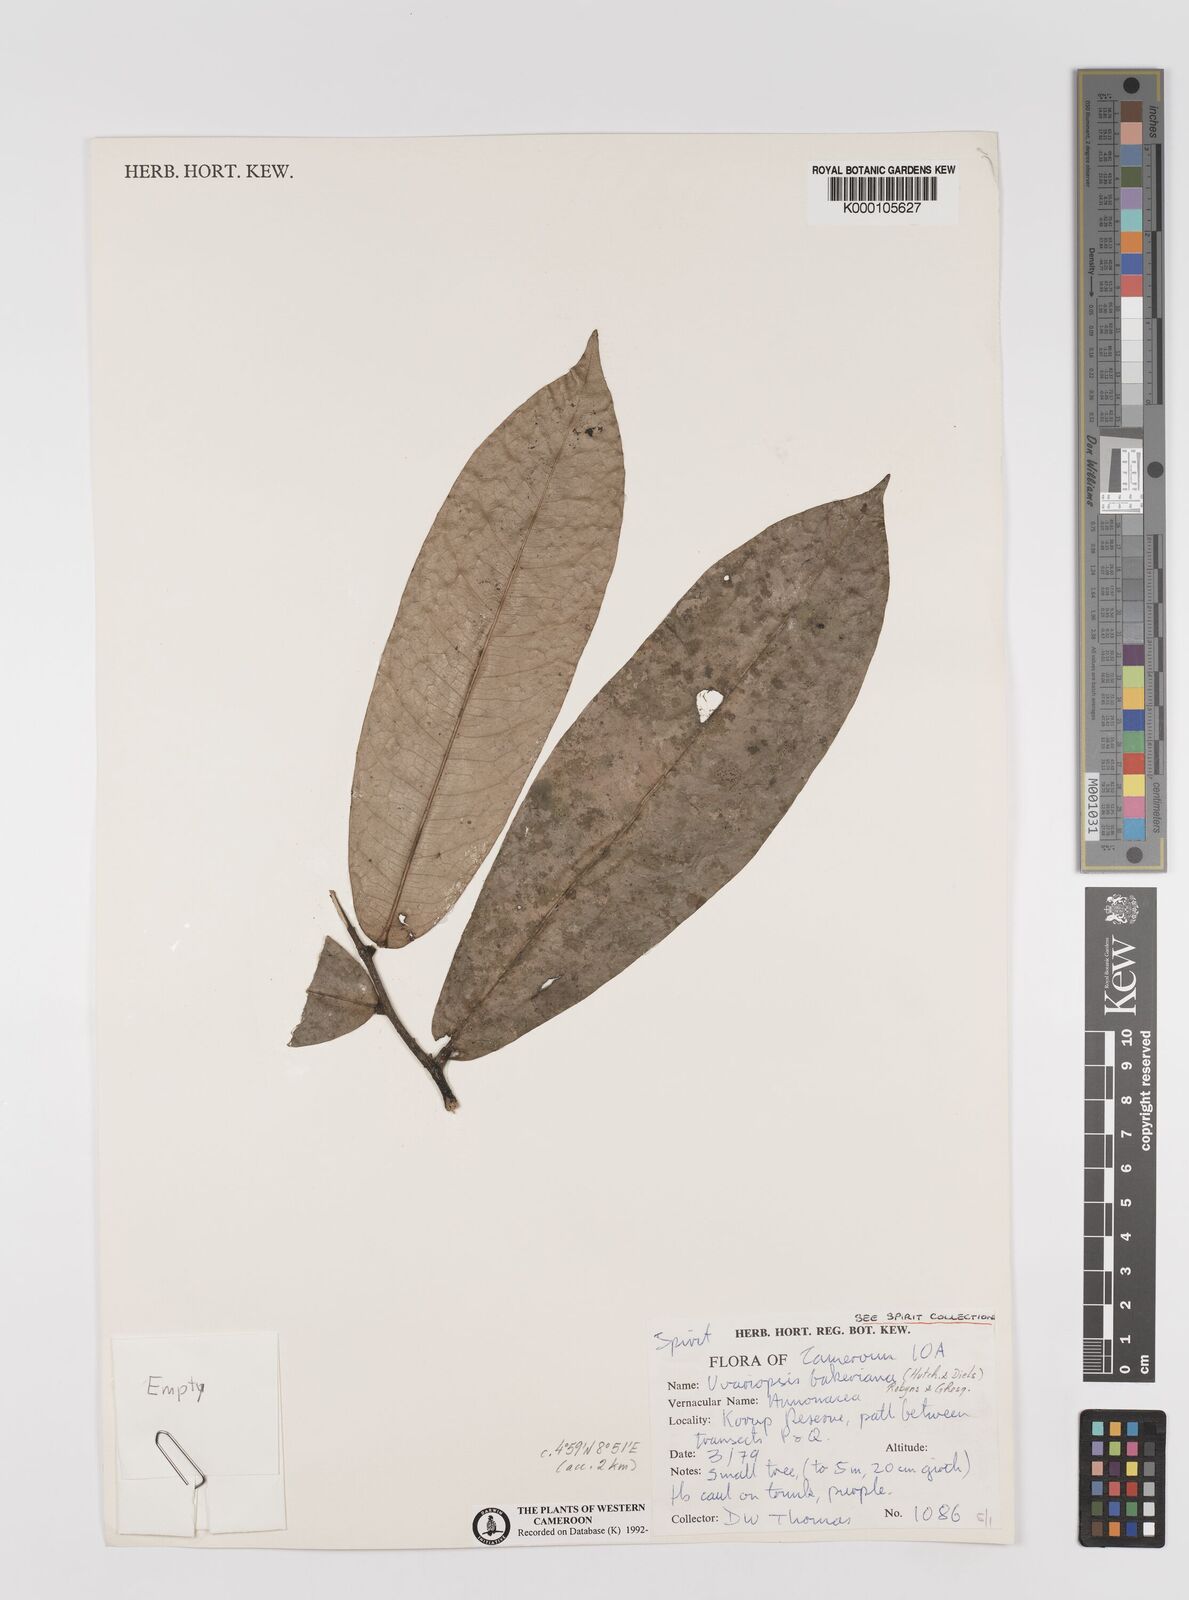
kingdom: Plantae
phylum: Tracheophyta
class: Magnoliopsida
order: Magnoliales
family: Annonaceae
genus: Uvariopsis
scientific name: Uvariopsis bakeriana
